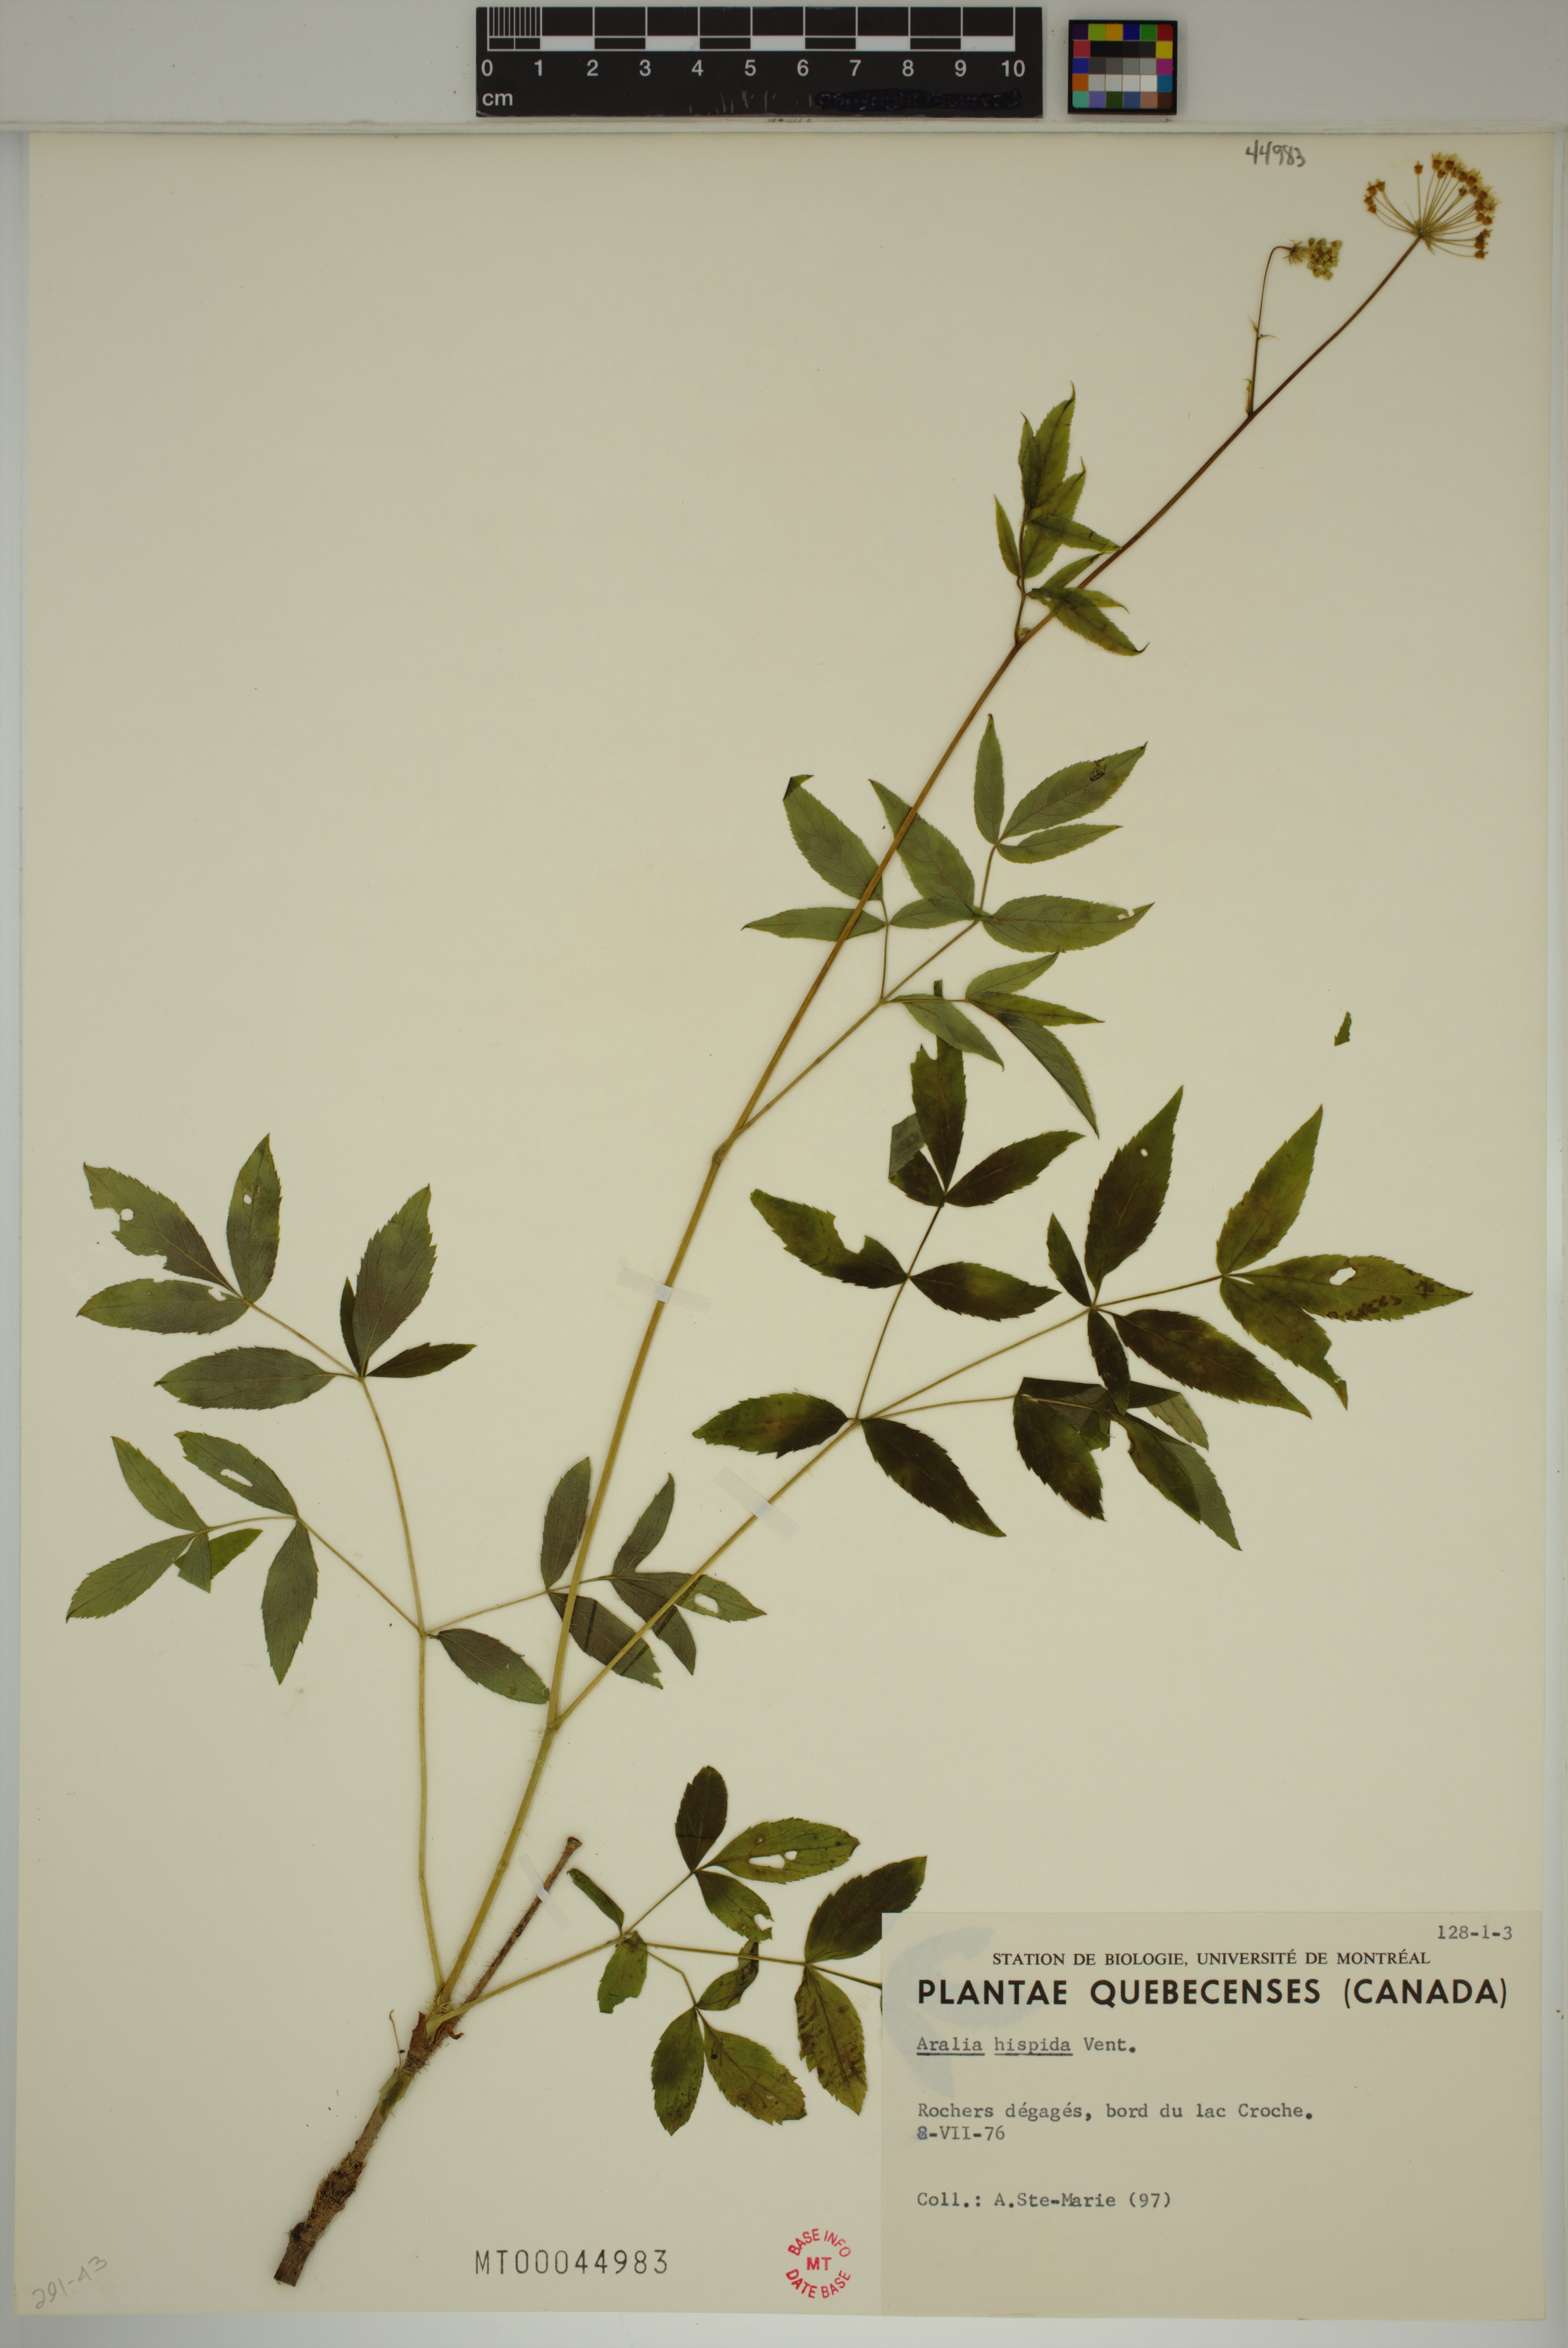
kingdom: Plantae
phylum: Tracheophyta
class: Magnoliopsida
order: Apiales
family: Araliaceae
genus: Aralia
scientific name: Aralia hispida
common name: Bristly sarsaparilla
